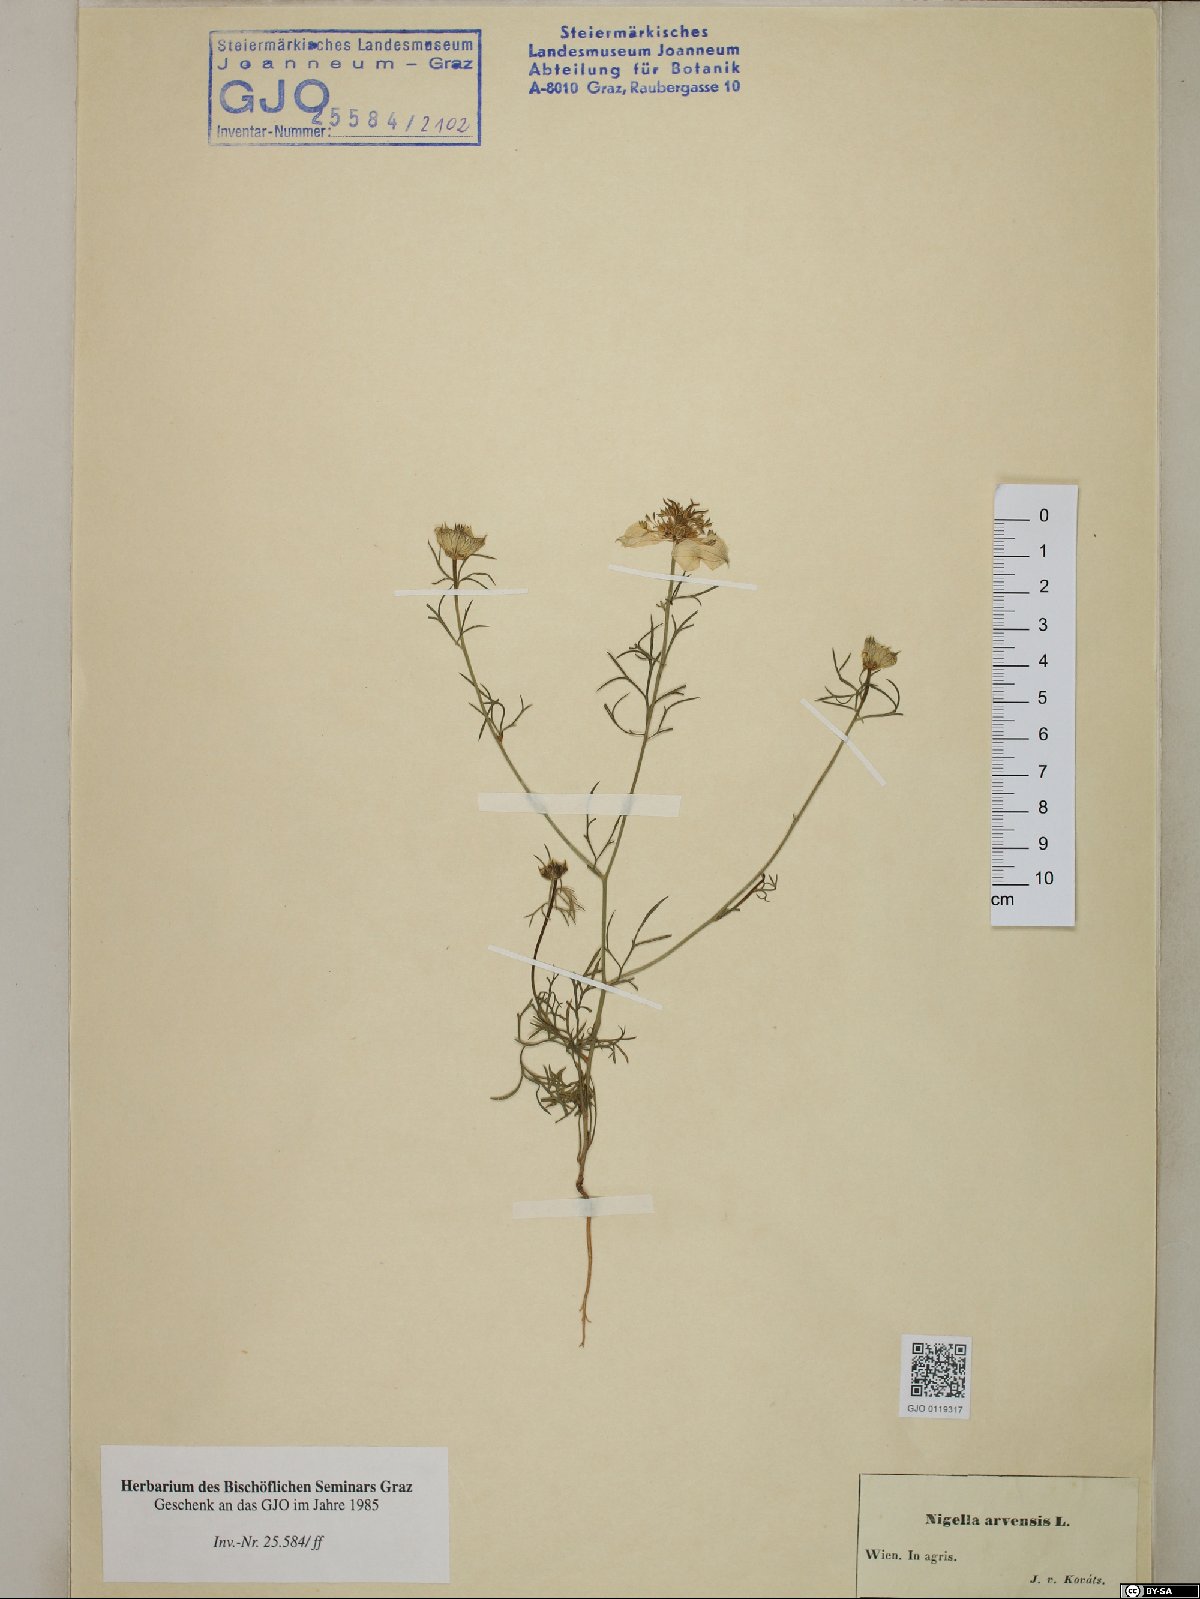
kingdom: Plantae
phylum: Tracheophyta
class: Magnoliopsida
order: Ranunculales
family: Ranunculaceae
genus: Nigella
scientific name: Nigella arvensis
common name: Wild fennel-flower
